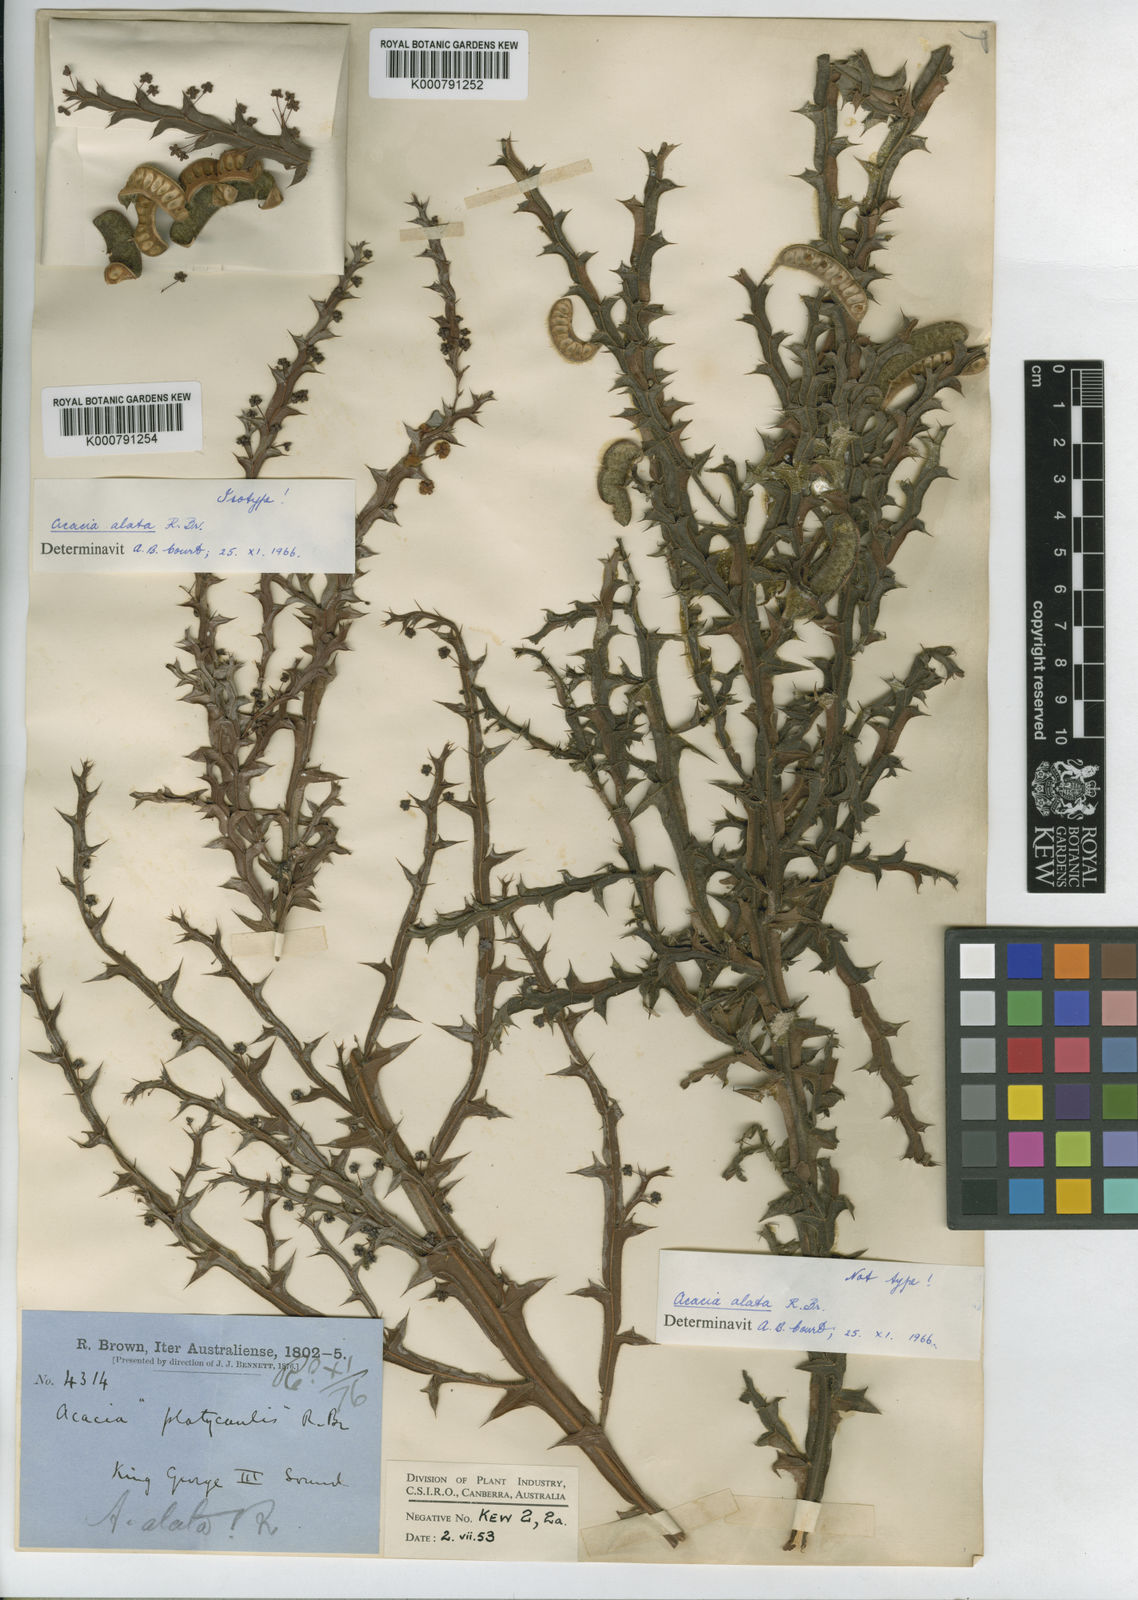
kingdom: Plantae
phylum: Tracheophyta
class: Magnoliopsida
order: Fabales
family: Fabaceae
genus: Acacia
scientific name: Acacia alata
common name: Winged wattle
